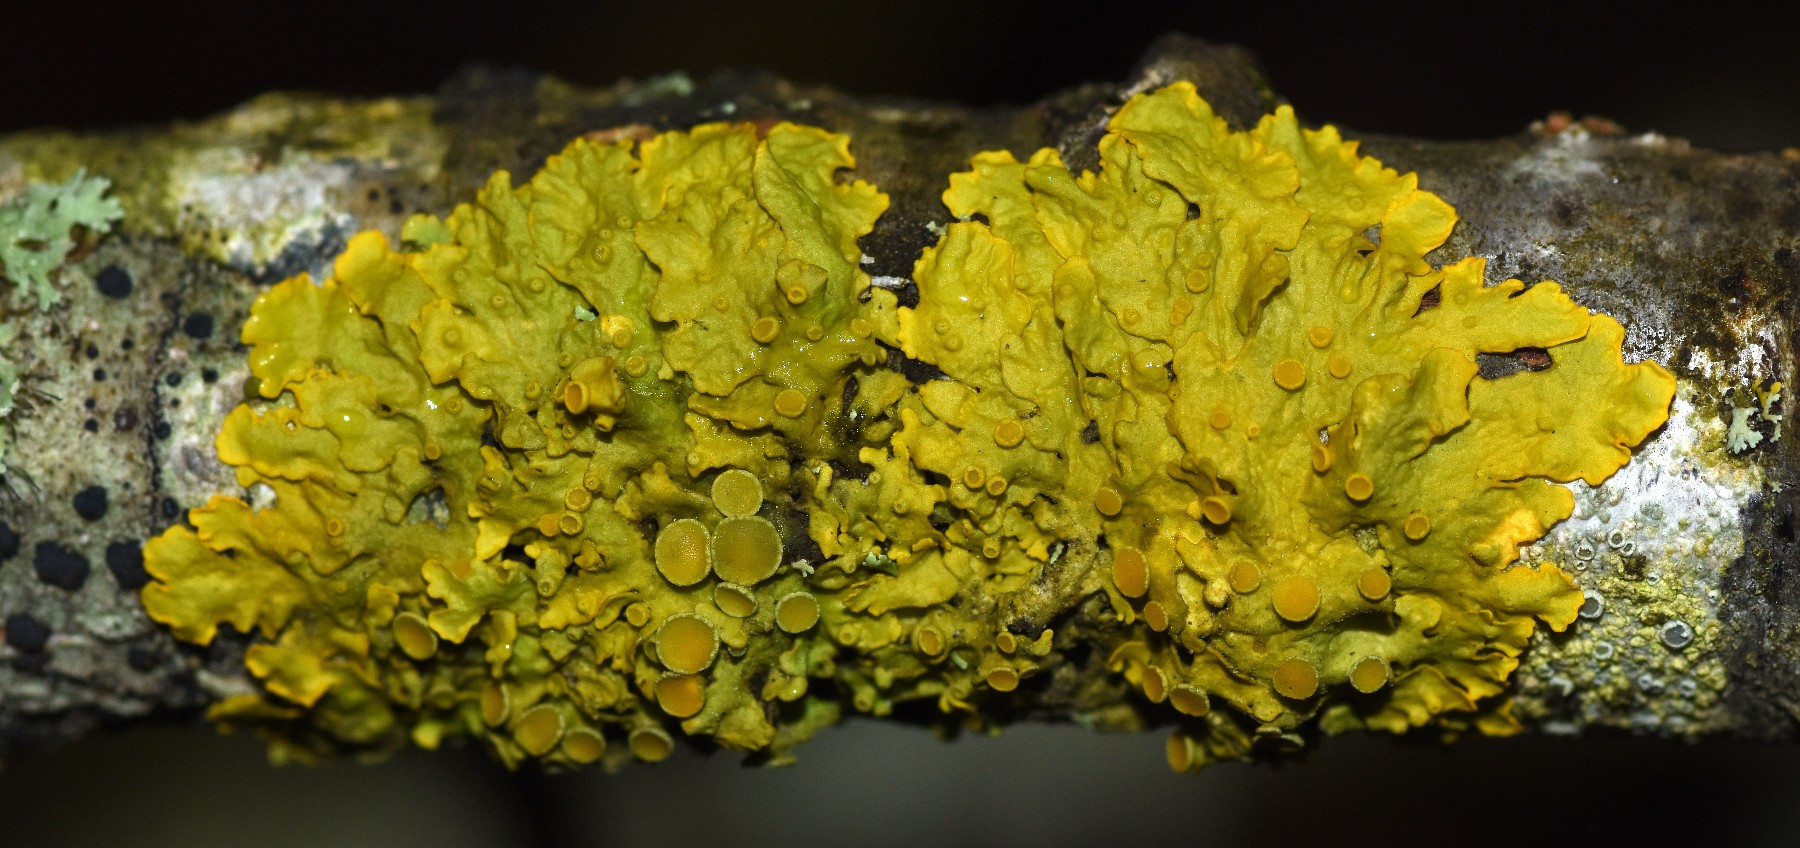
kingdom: Fungi
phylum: Ascomycota
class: Lecanoromycetes
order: Teloschistales
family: Teloschistaceae
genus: Xanthoria
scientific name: Xanthoria parietina
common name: almindelig væggelav
